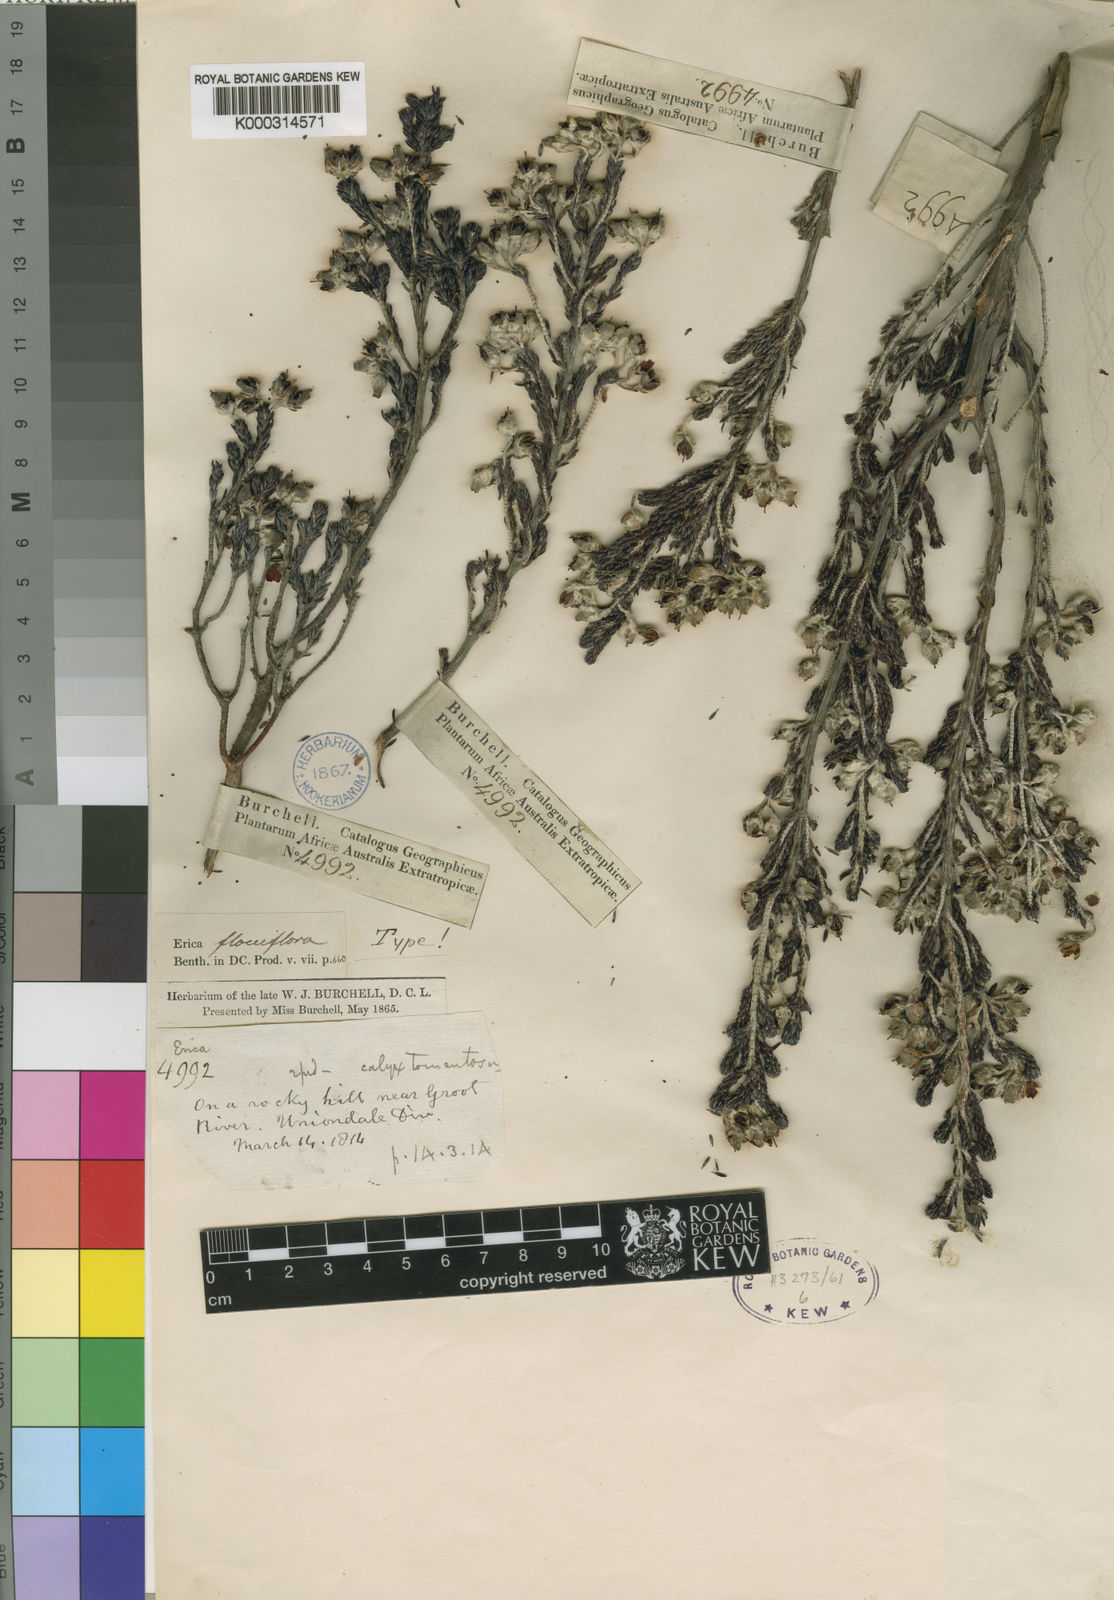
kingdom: Plantae
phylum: Tracheophyta
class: Magnoliopsida
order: Ericales
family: Ericaceae
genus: Erica
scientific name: Erica
